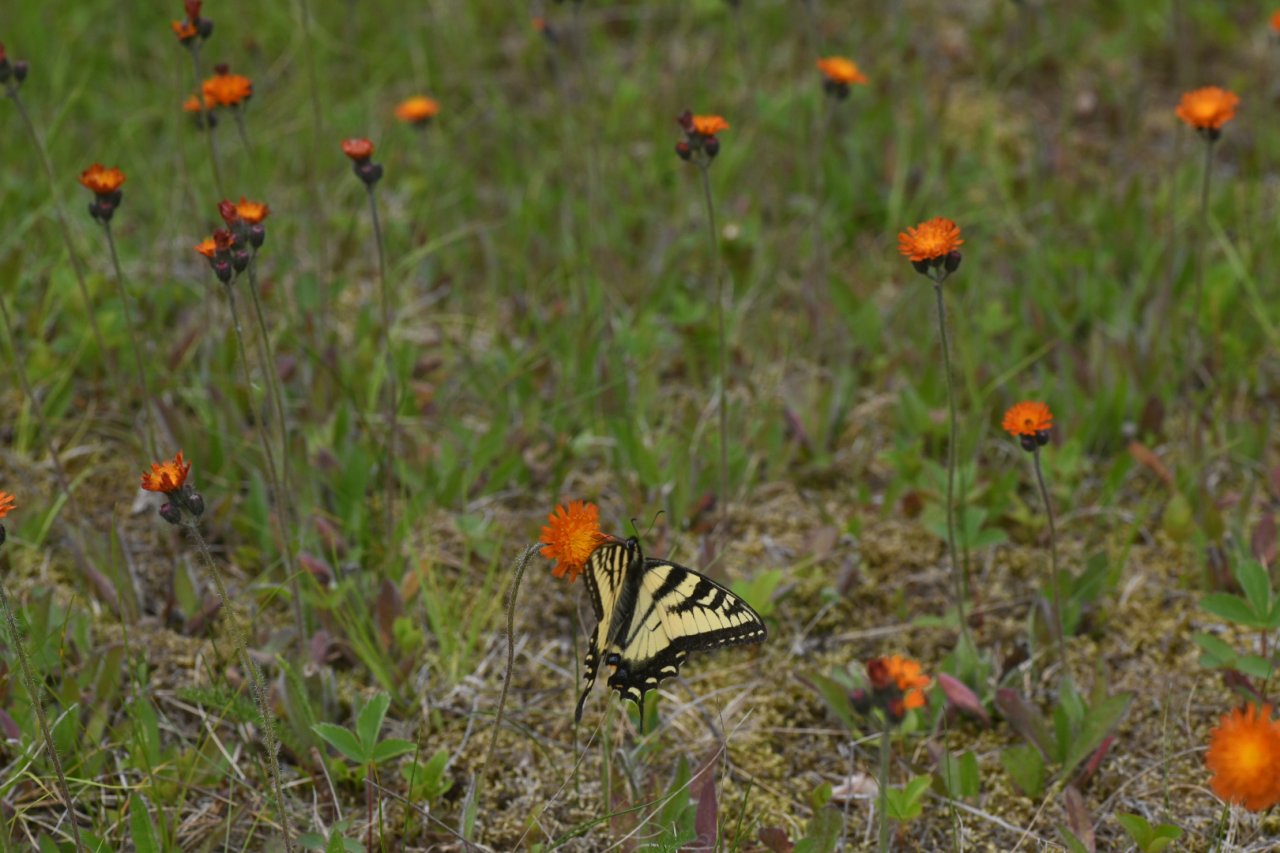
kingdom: Animalia
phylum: Arthropoda
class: Insecta
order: Lepidoptera
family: Papilionidae
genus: Pterourus
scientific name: Pterourus canadensis
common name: Canadian Tiger Swallowtail
